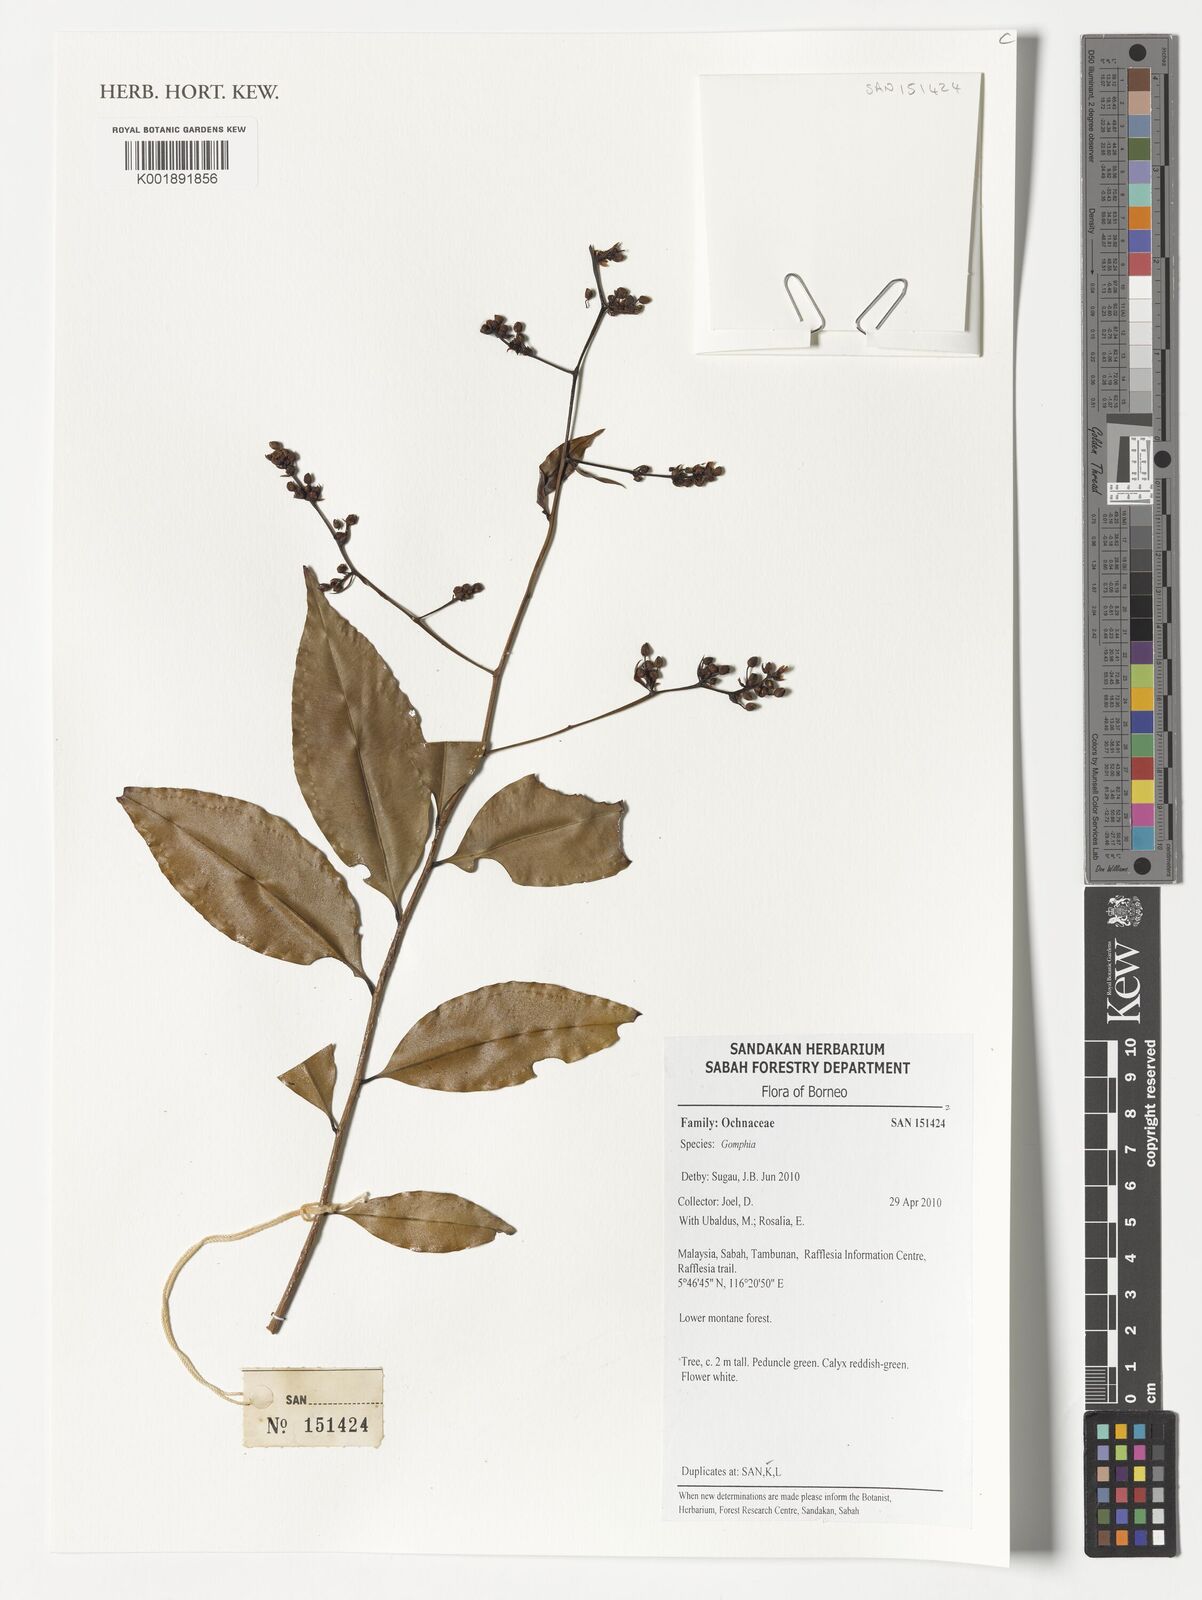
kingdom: Plantae
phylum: Tracheophyta
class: Magnoliopsida
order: Malpighiales
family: Ochnaceae
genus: Gomphia
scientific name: Gomphia
